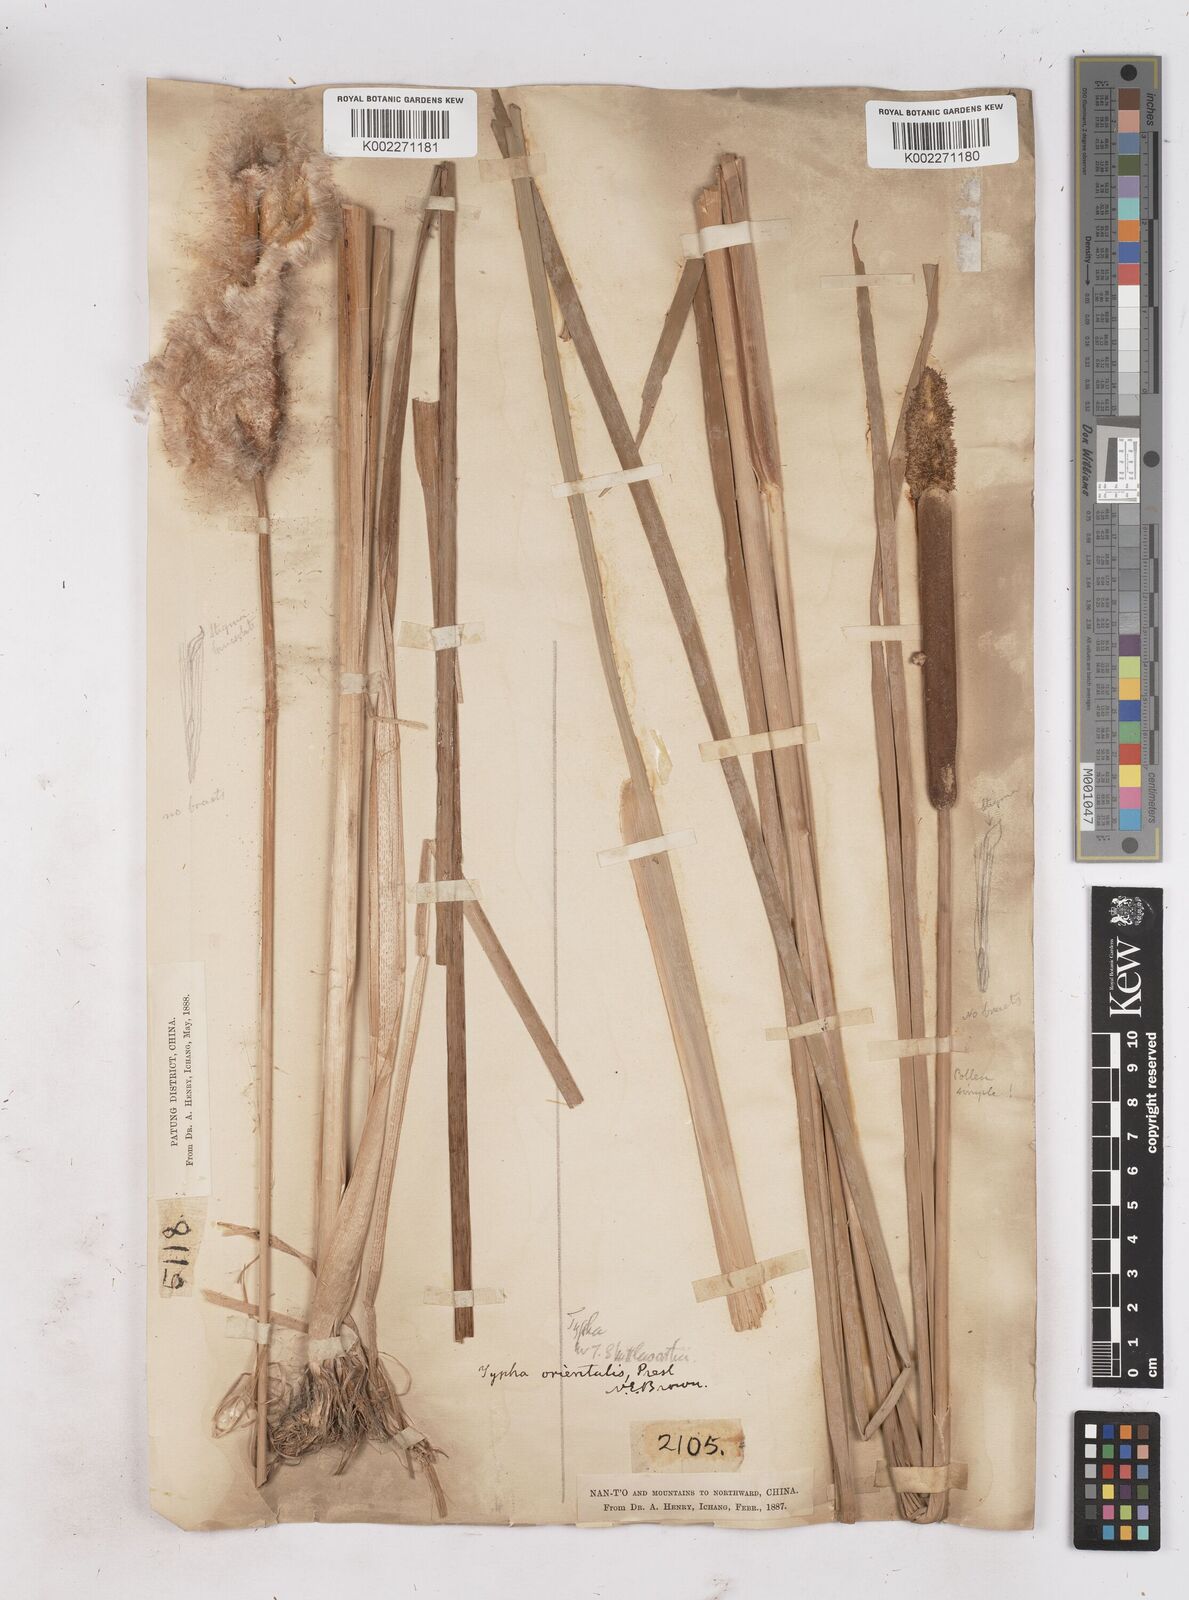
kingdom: Plantae
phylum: Tracheophyta
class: Liliopsida
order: Poales
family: Typhaceae
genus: Typha
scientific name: Typha shuttleworthii
